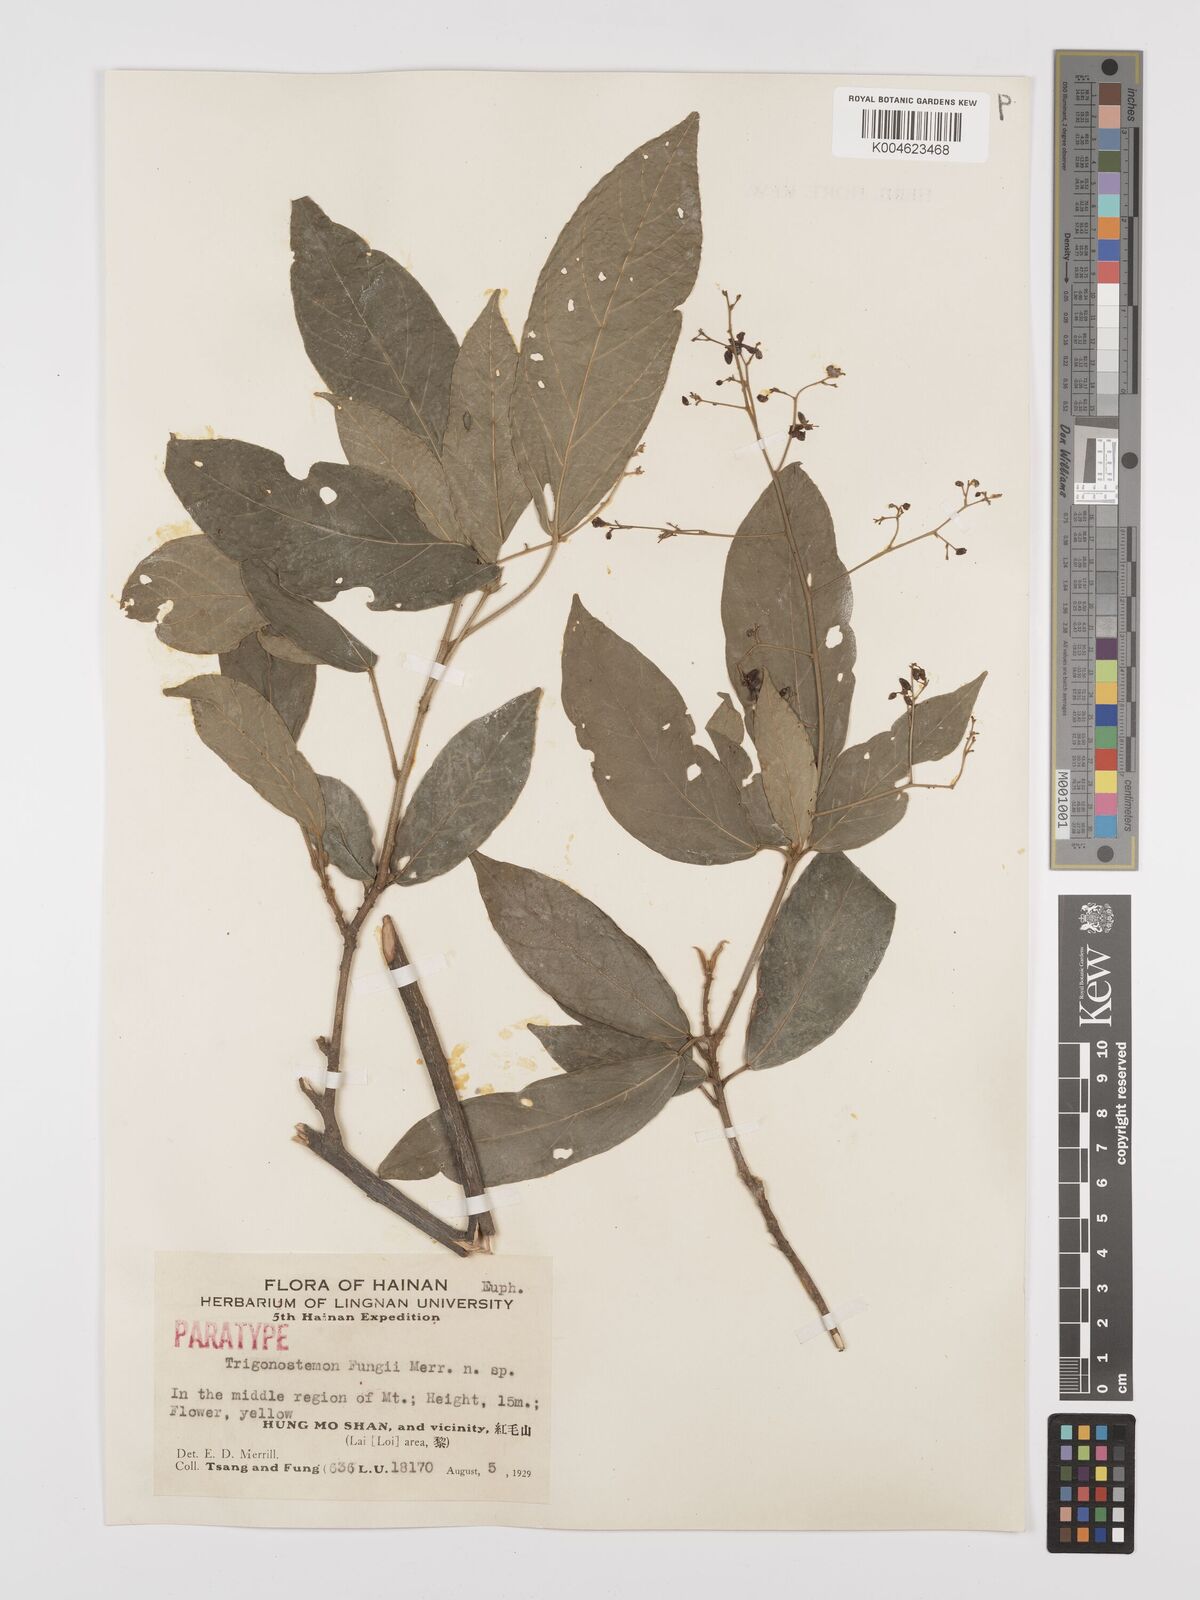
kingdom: Plantae
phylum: Tracheophyta
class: Magnoliopsida
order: Malpighiales
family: Euphorbiaceae
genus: Trigonostemon
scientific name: Trigonostemon viridissimus
